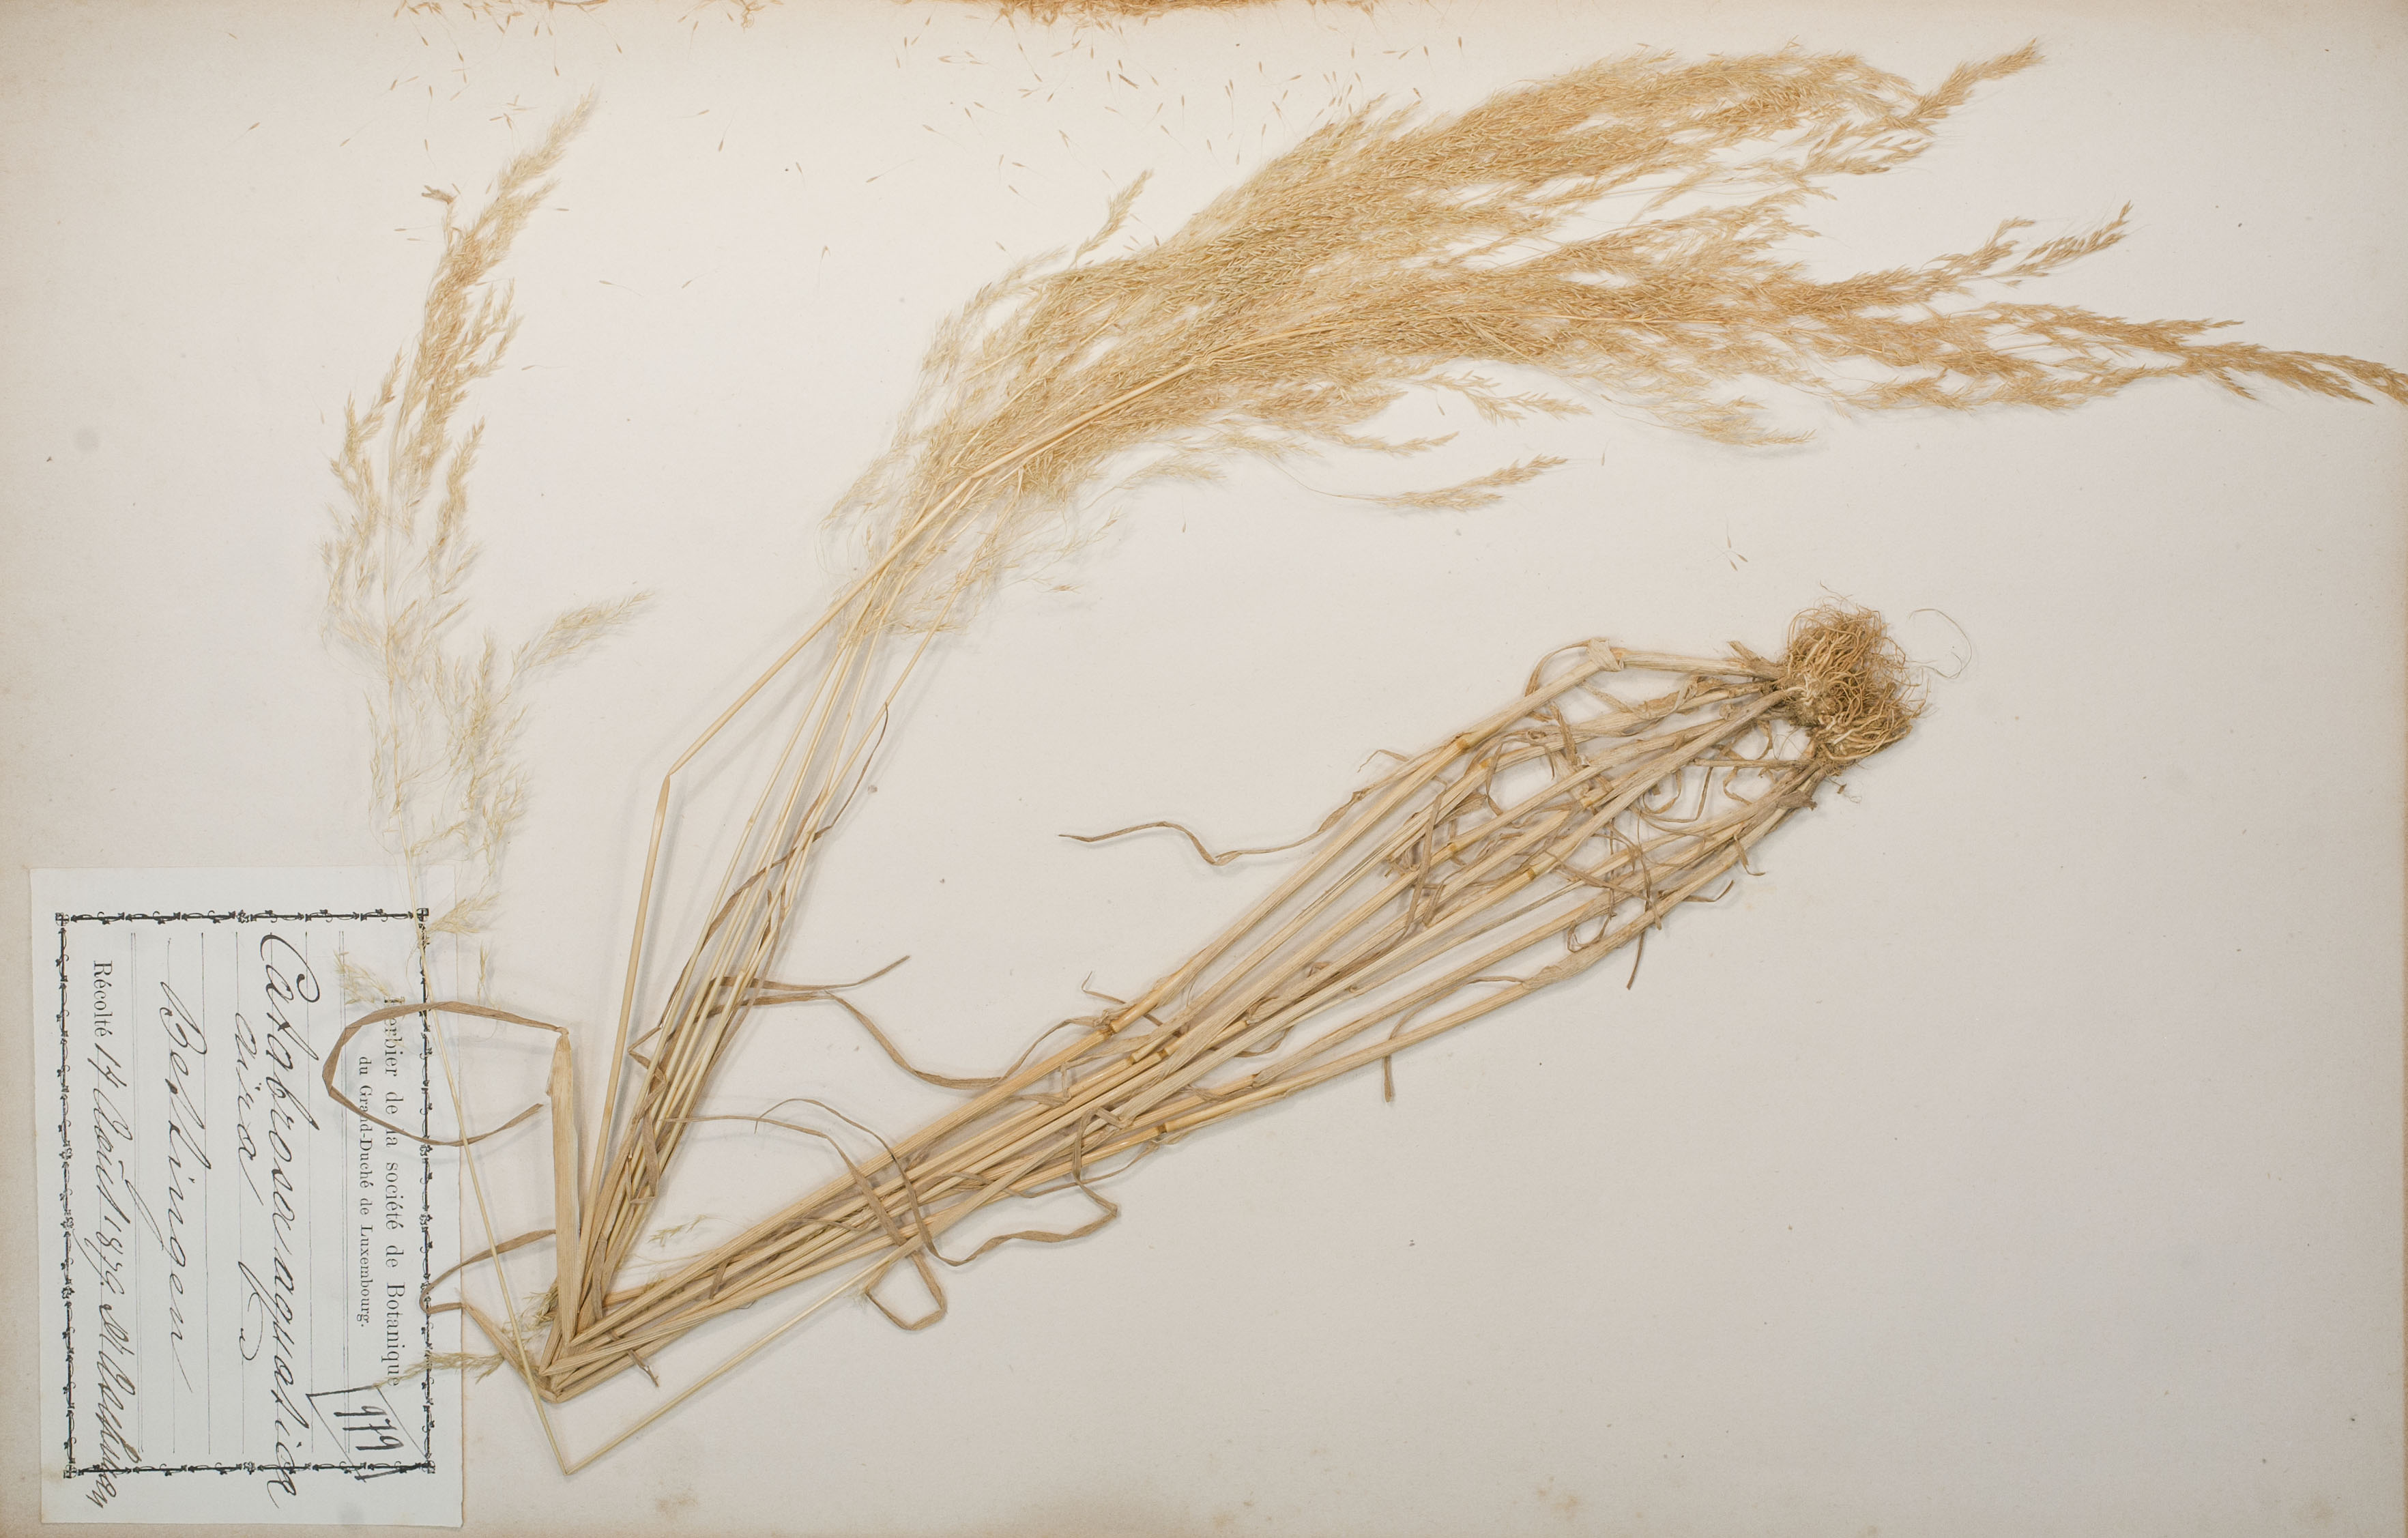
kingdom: Plantae
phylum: Tracheophyta
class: Liliopsida
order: Poales
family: Poaceae
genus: Catabrosa
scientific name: Catabrosa aquatica
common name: Whorl-grass
